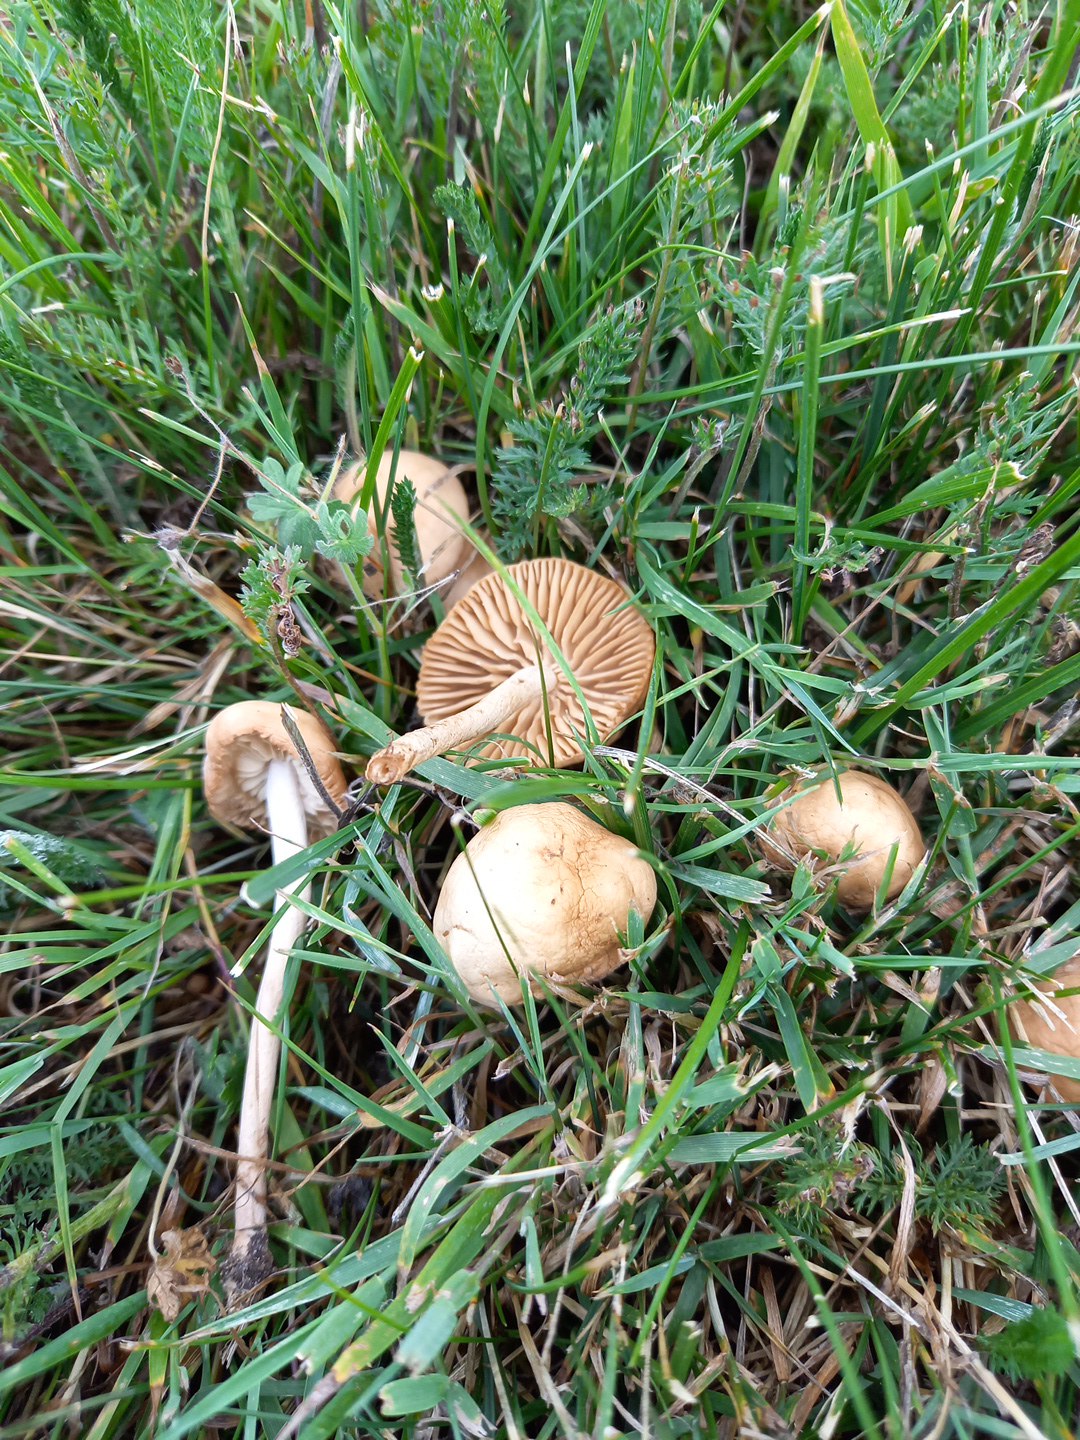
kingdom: Fungi
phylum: Basidiomycota
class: Agaricomycetes
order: Agaricales
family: Marasmiaceae
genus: Marasmius
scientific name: Marasmius oreades
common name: elledans-bruskhat
